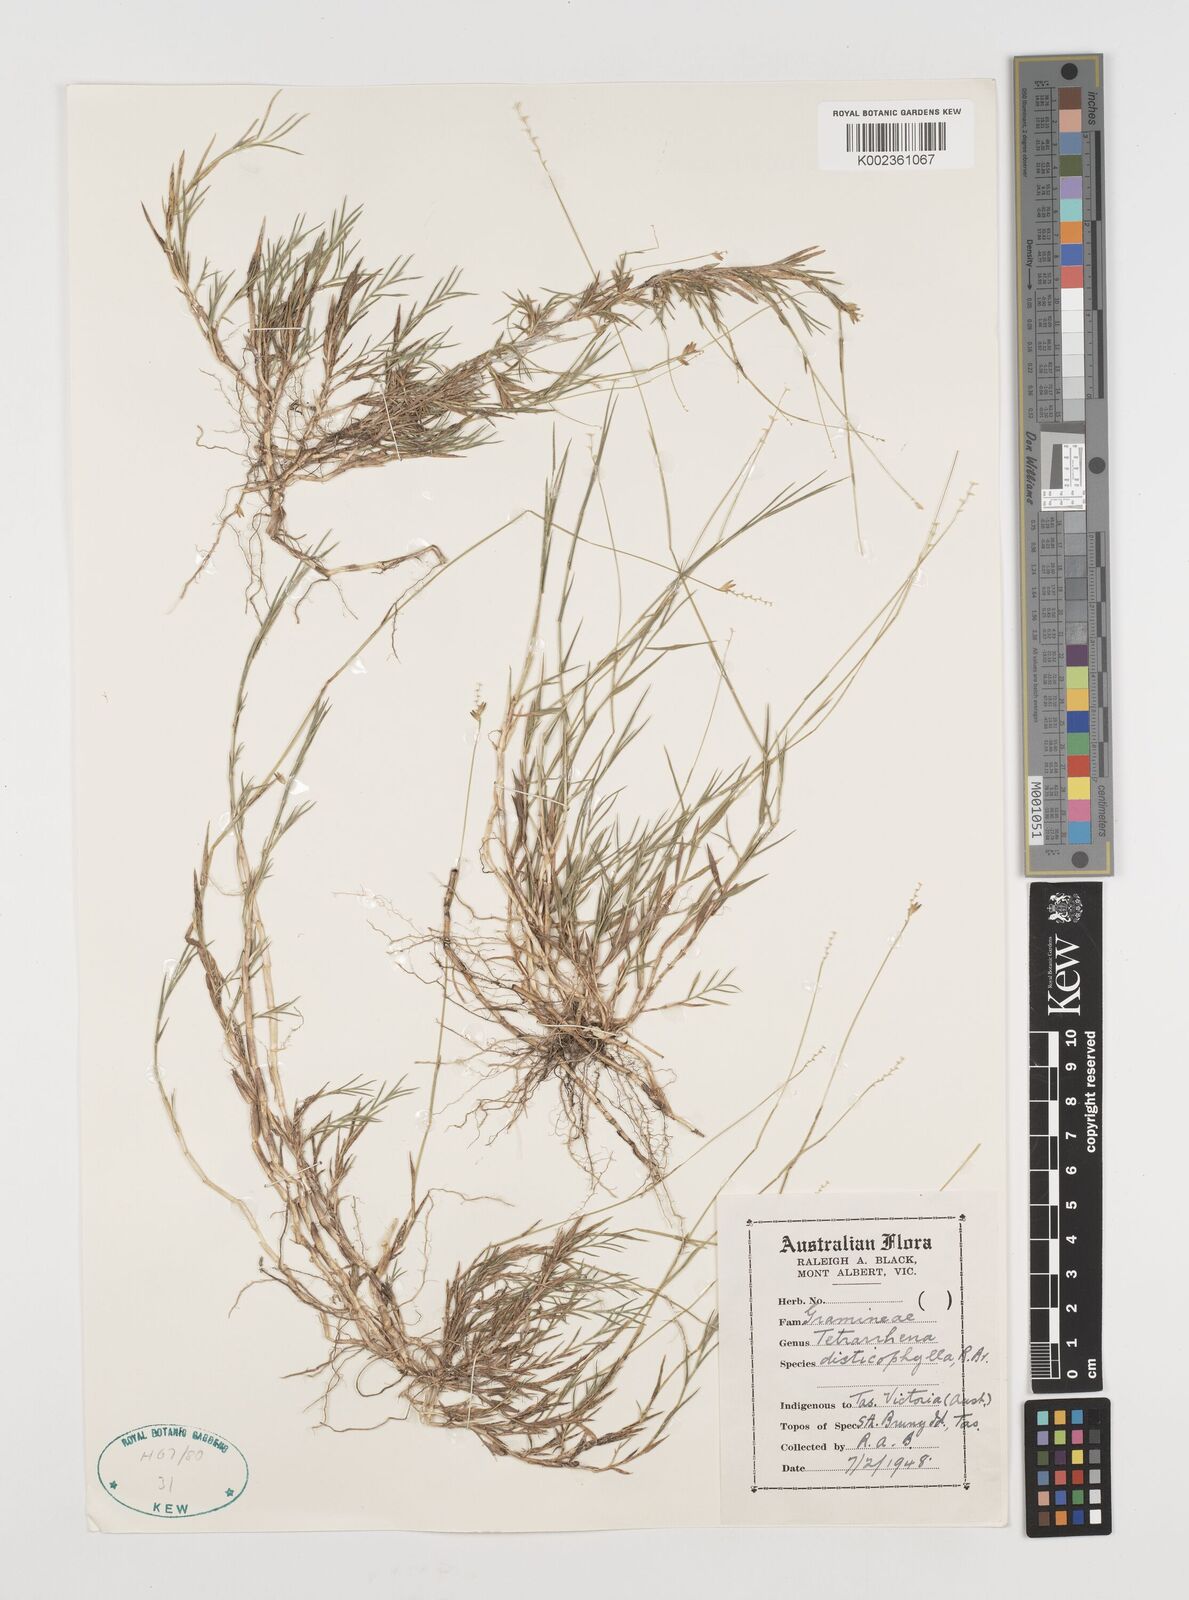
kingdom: Plantae
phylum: Tracheophyta
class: Liliopsida
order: Poales
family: Poaceae
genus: Ehrharta
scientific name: Ehrharta
